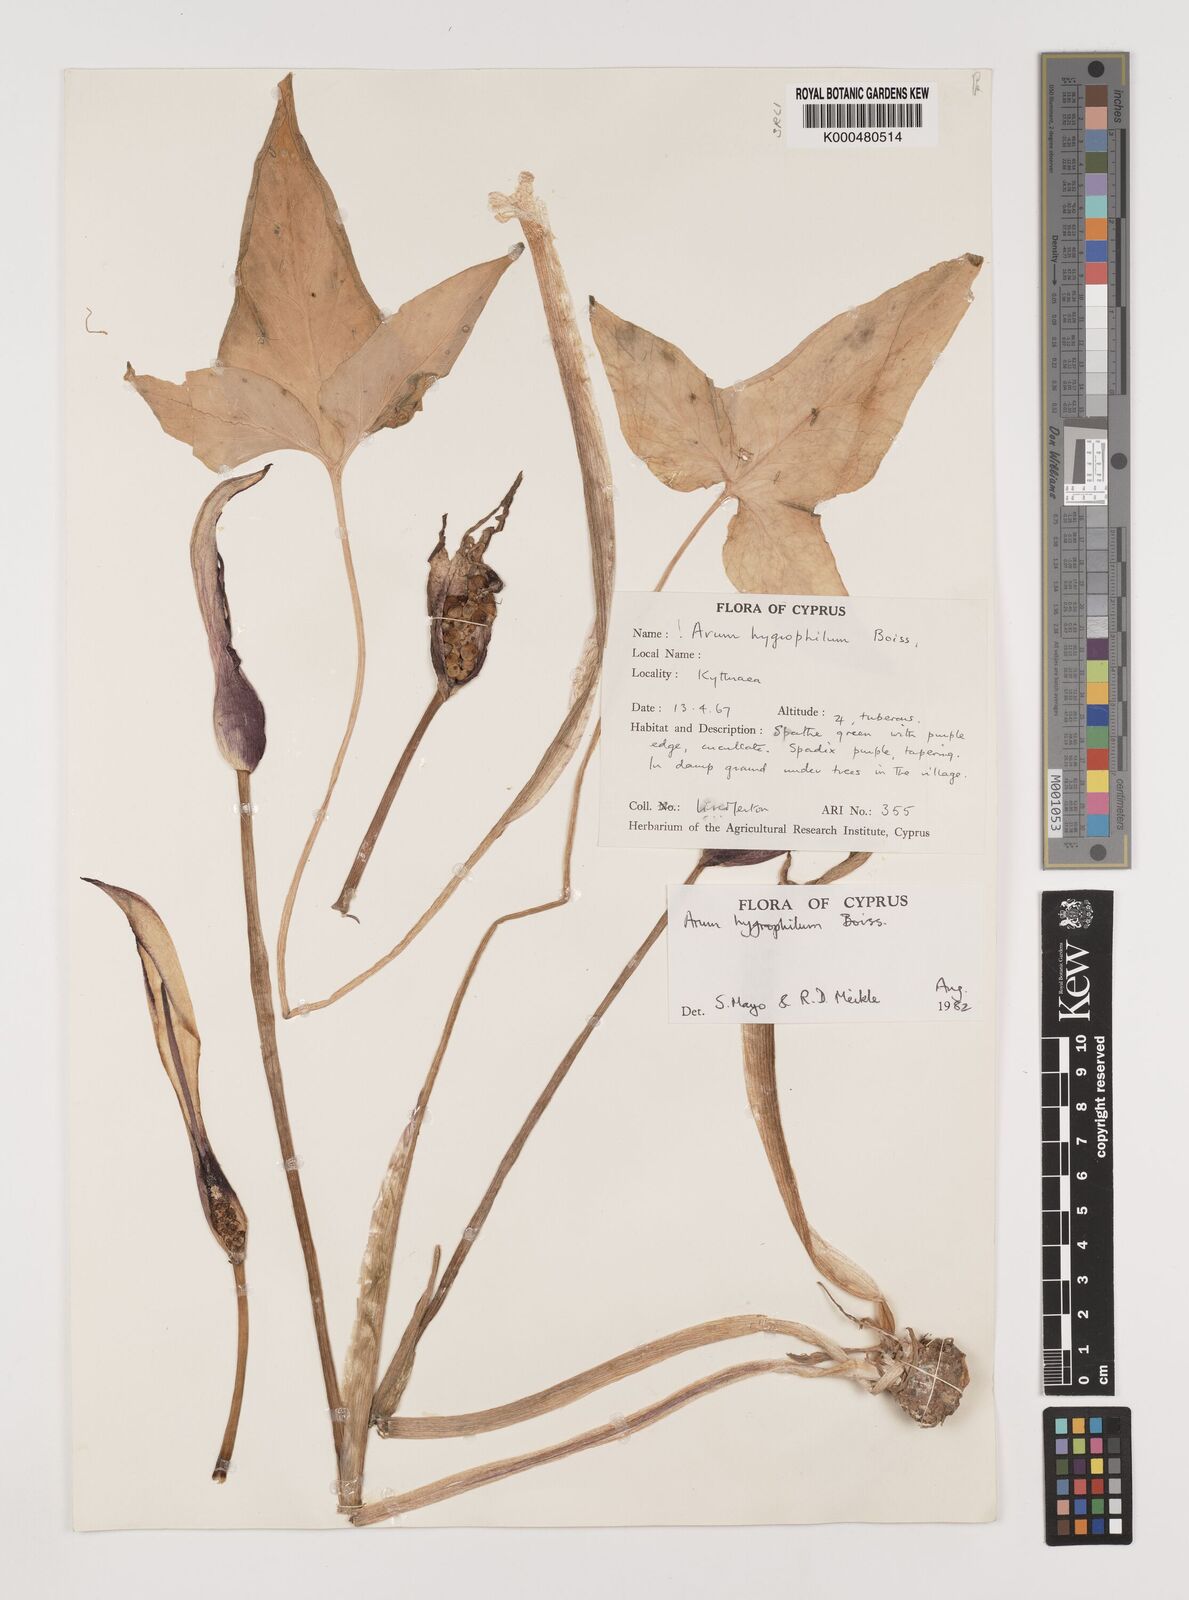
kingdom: Plantae
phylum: Tracheophyta
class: Liliopsida
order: Alismatales
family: Araceae
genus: Arum
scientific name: Arum hygrophilum
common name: Water arum
